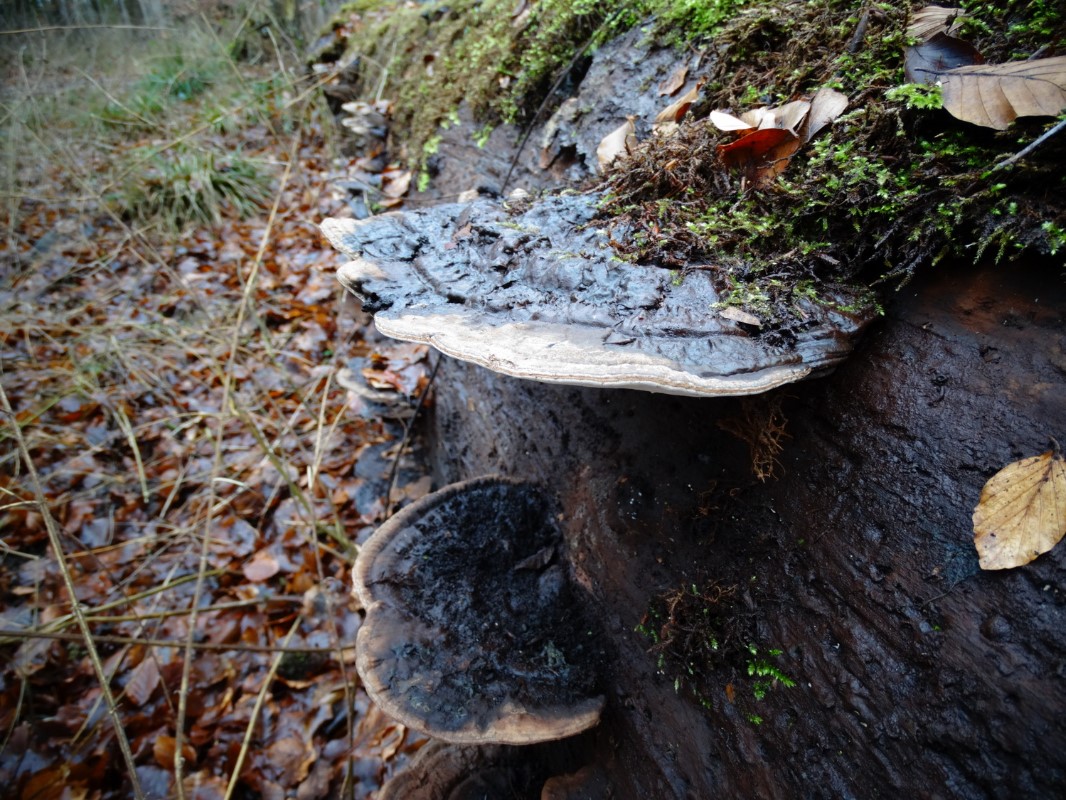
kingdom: Fungi
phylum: Basidiomycota
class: Agaricomycetes
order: Polyporales
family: Polyporaceae
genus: Ganoderma
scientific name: Ganoderma applanatum
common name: flad lakporesvamp
